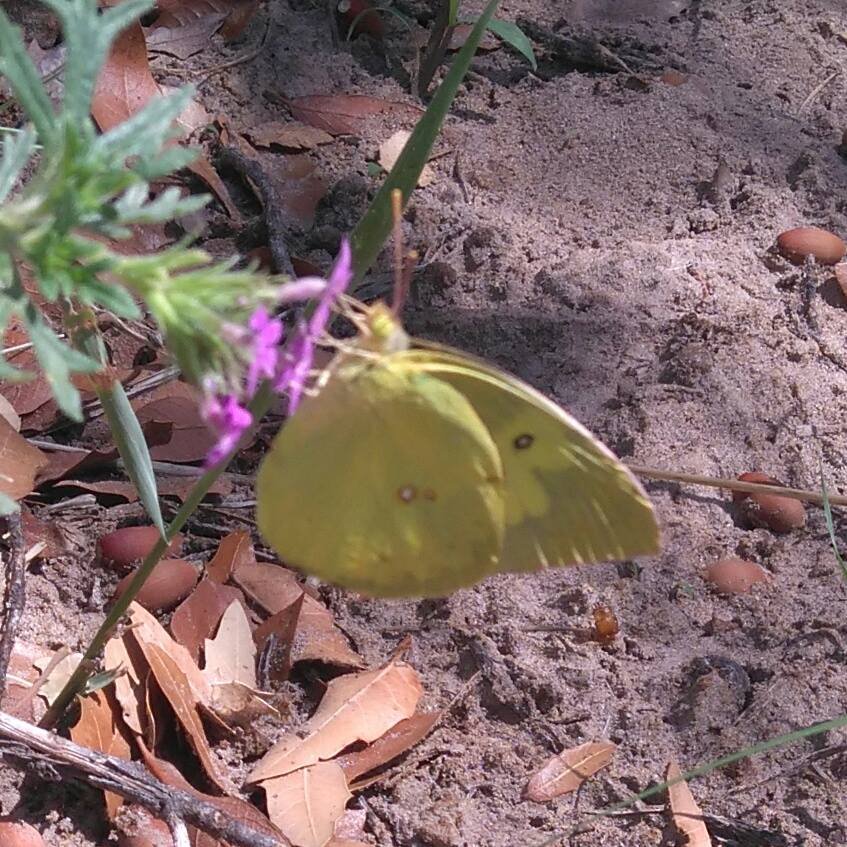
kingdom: Animalia
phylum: Arthropoda
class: Insecta
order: Lepidoptera
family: Pieridae
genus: Zerene
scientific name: Zerene cesonia
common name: Southern Dogface
